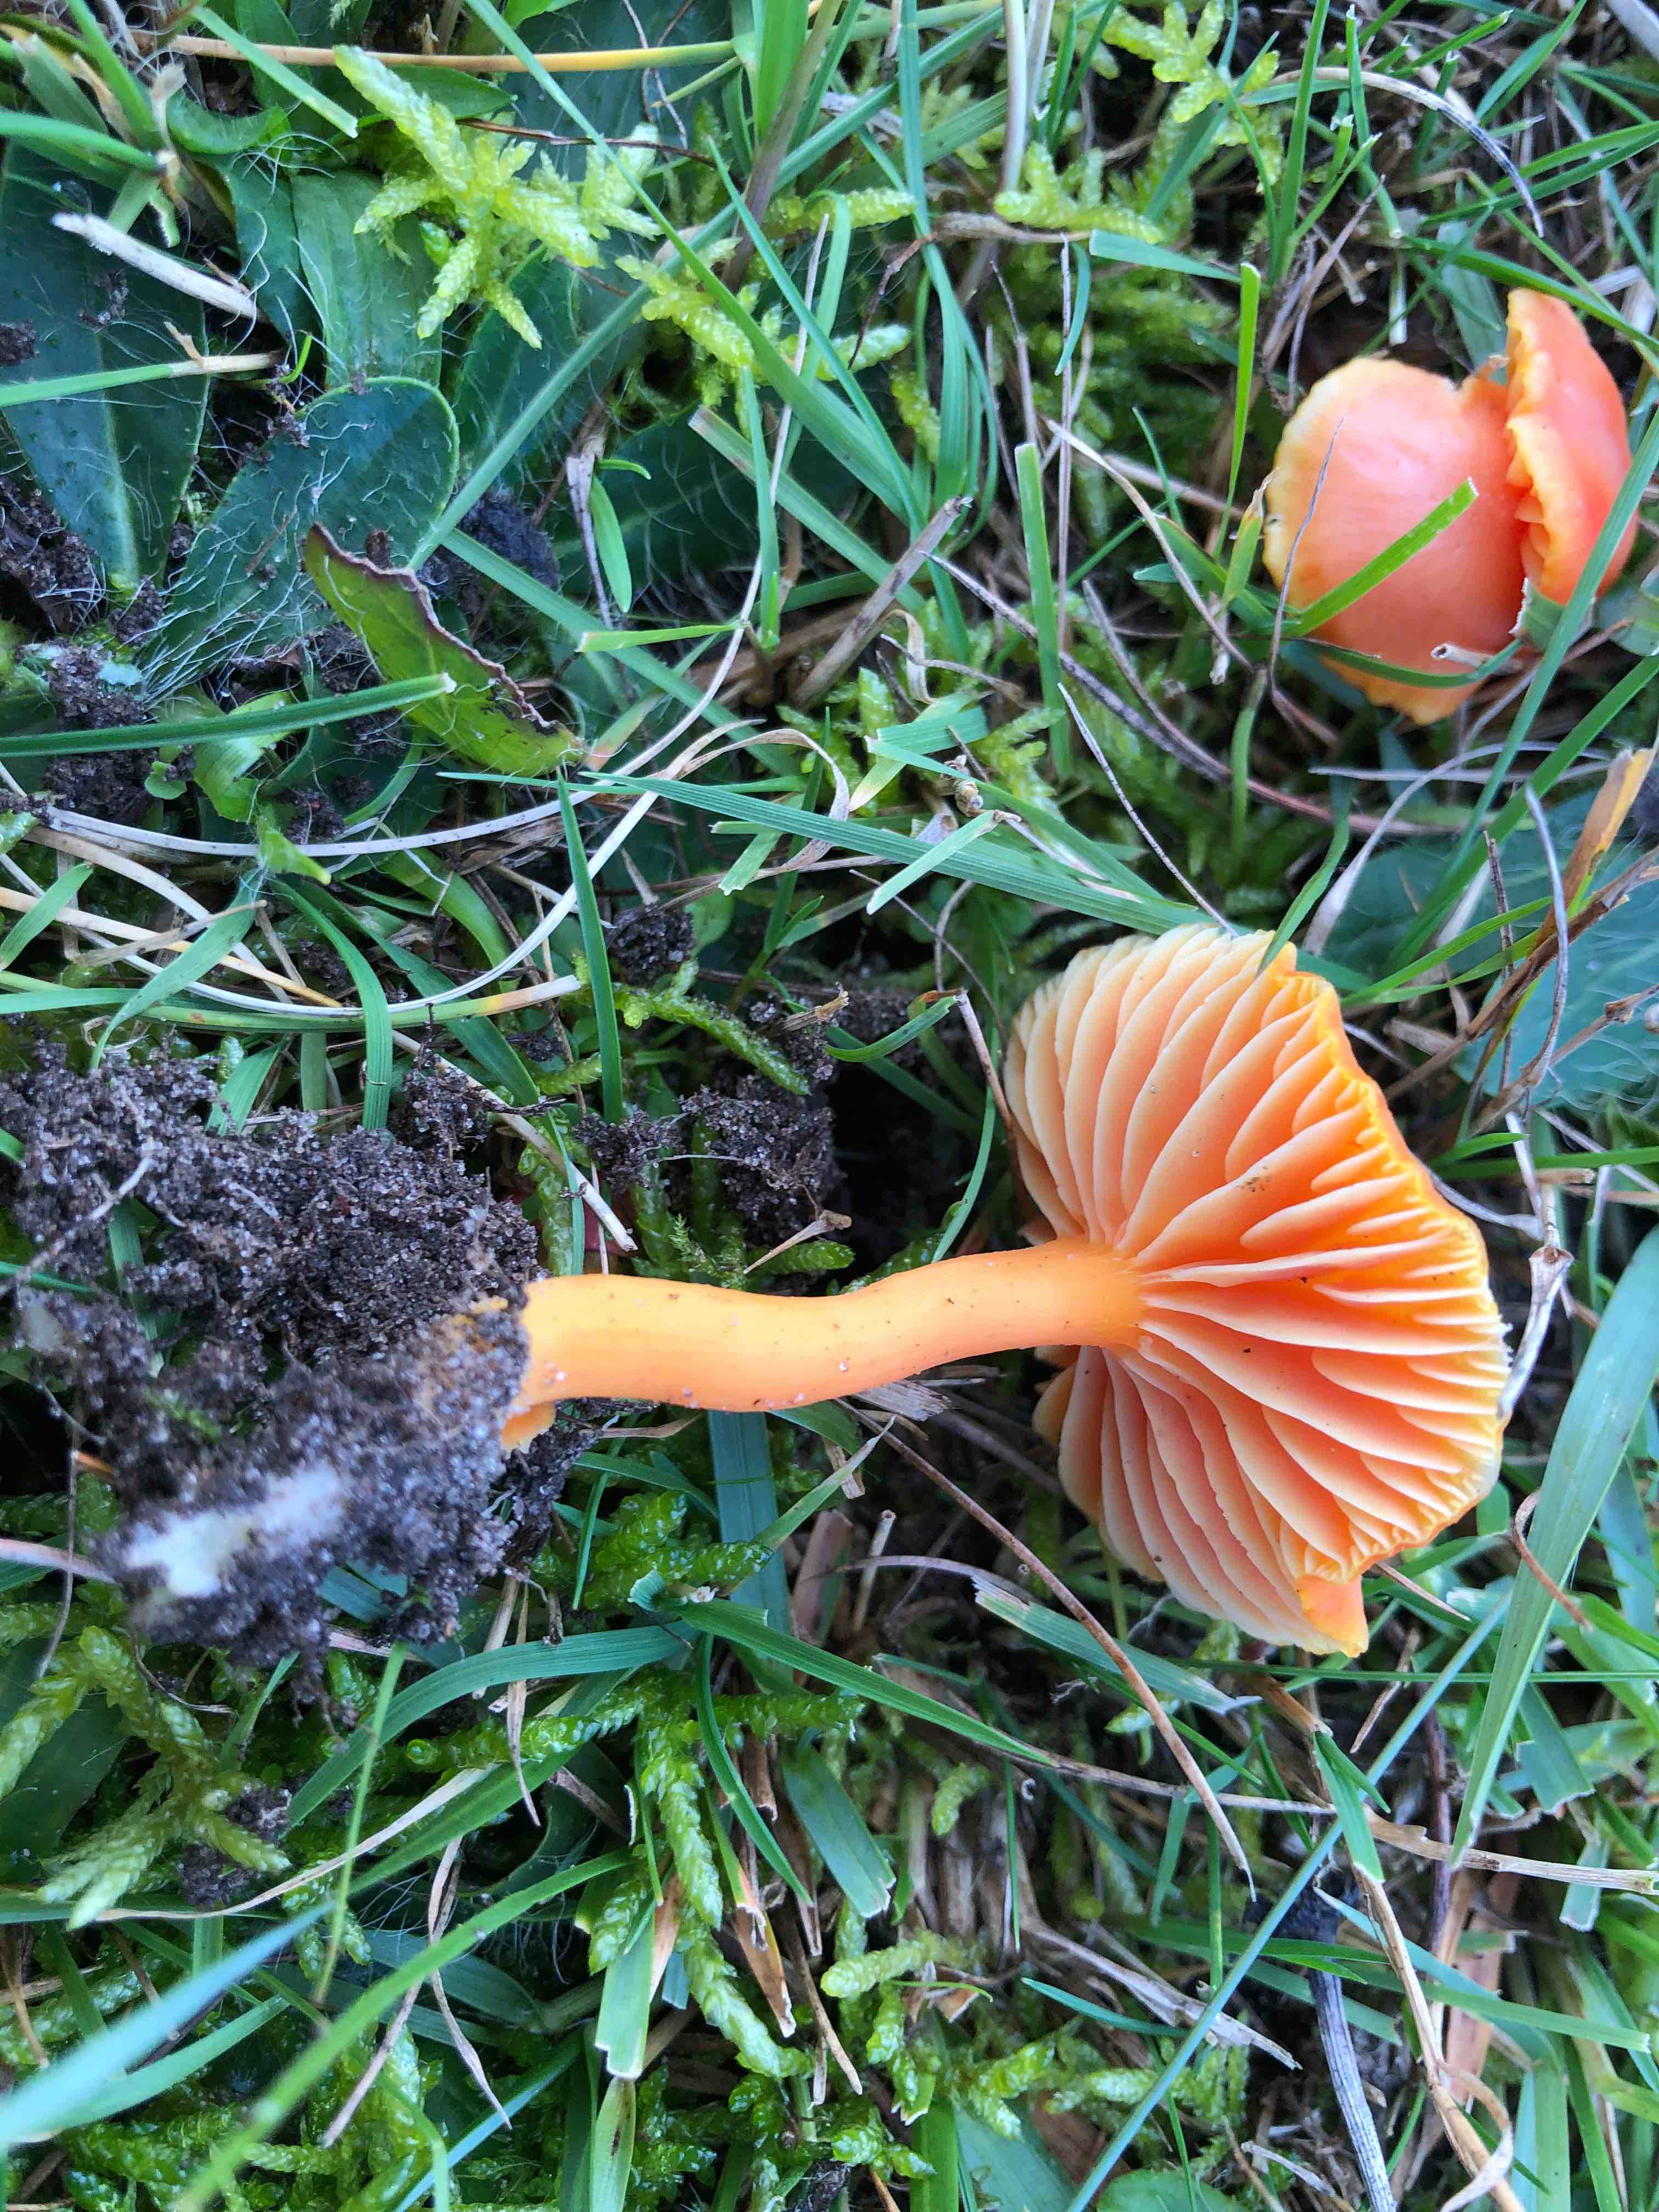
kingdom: Fungi
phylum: Basidiomycota
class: Agaricomycetes
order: Agaricales
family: Hygrophoraceae
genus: Hygrocybe
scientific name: Hygrocybe miniata
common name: mønje-vokshat
